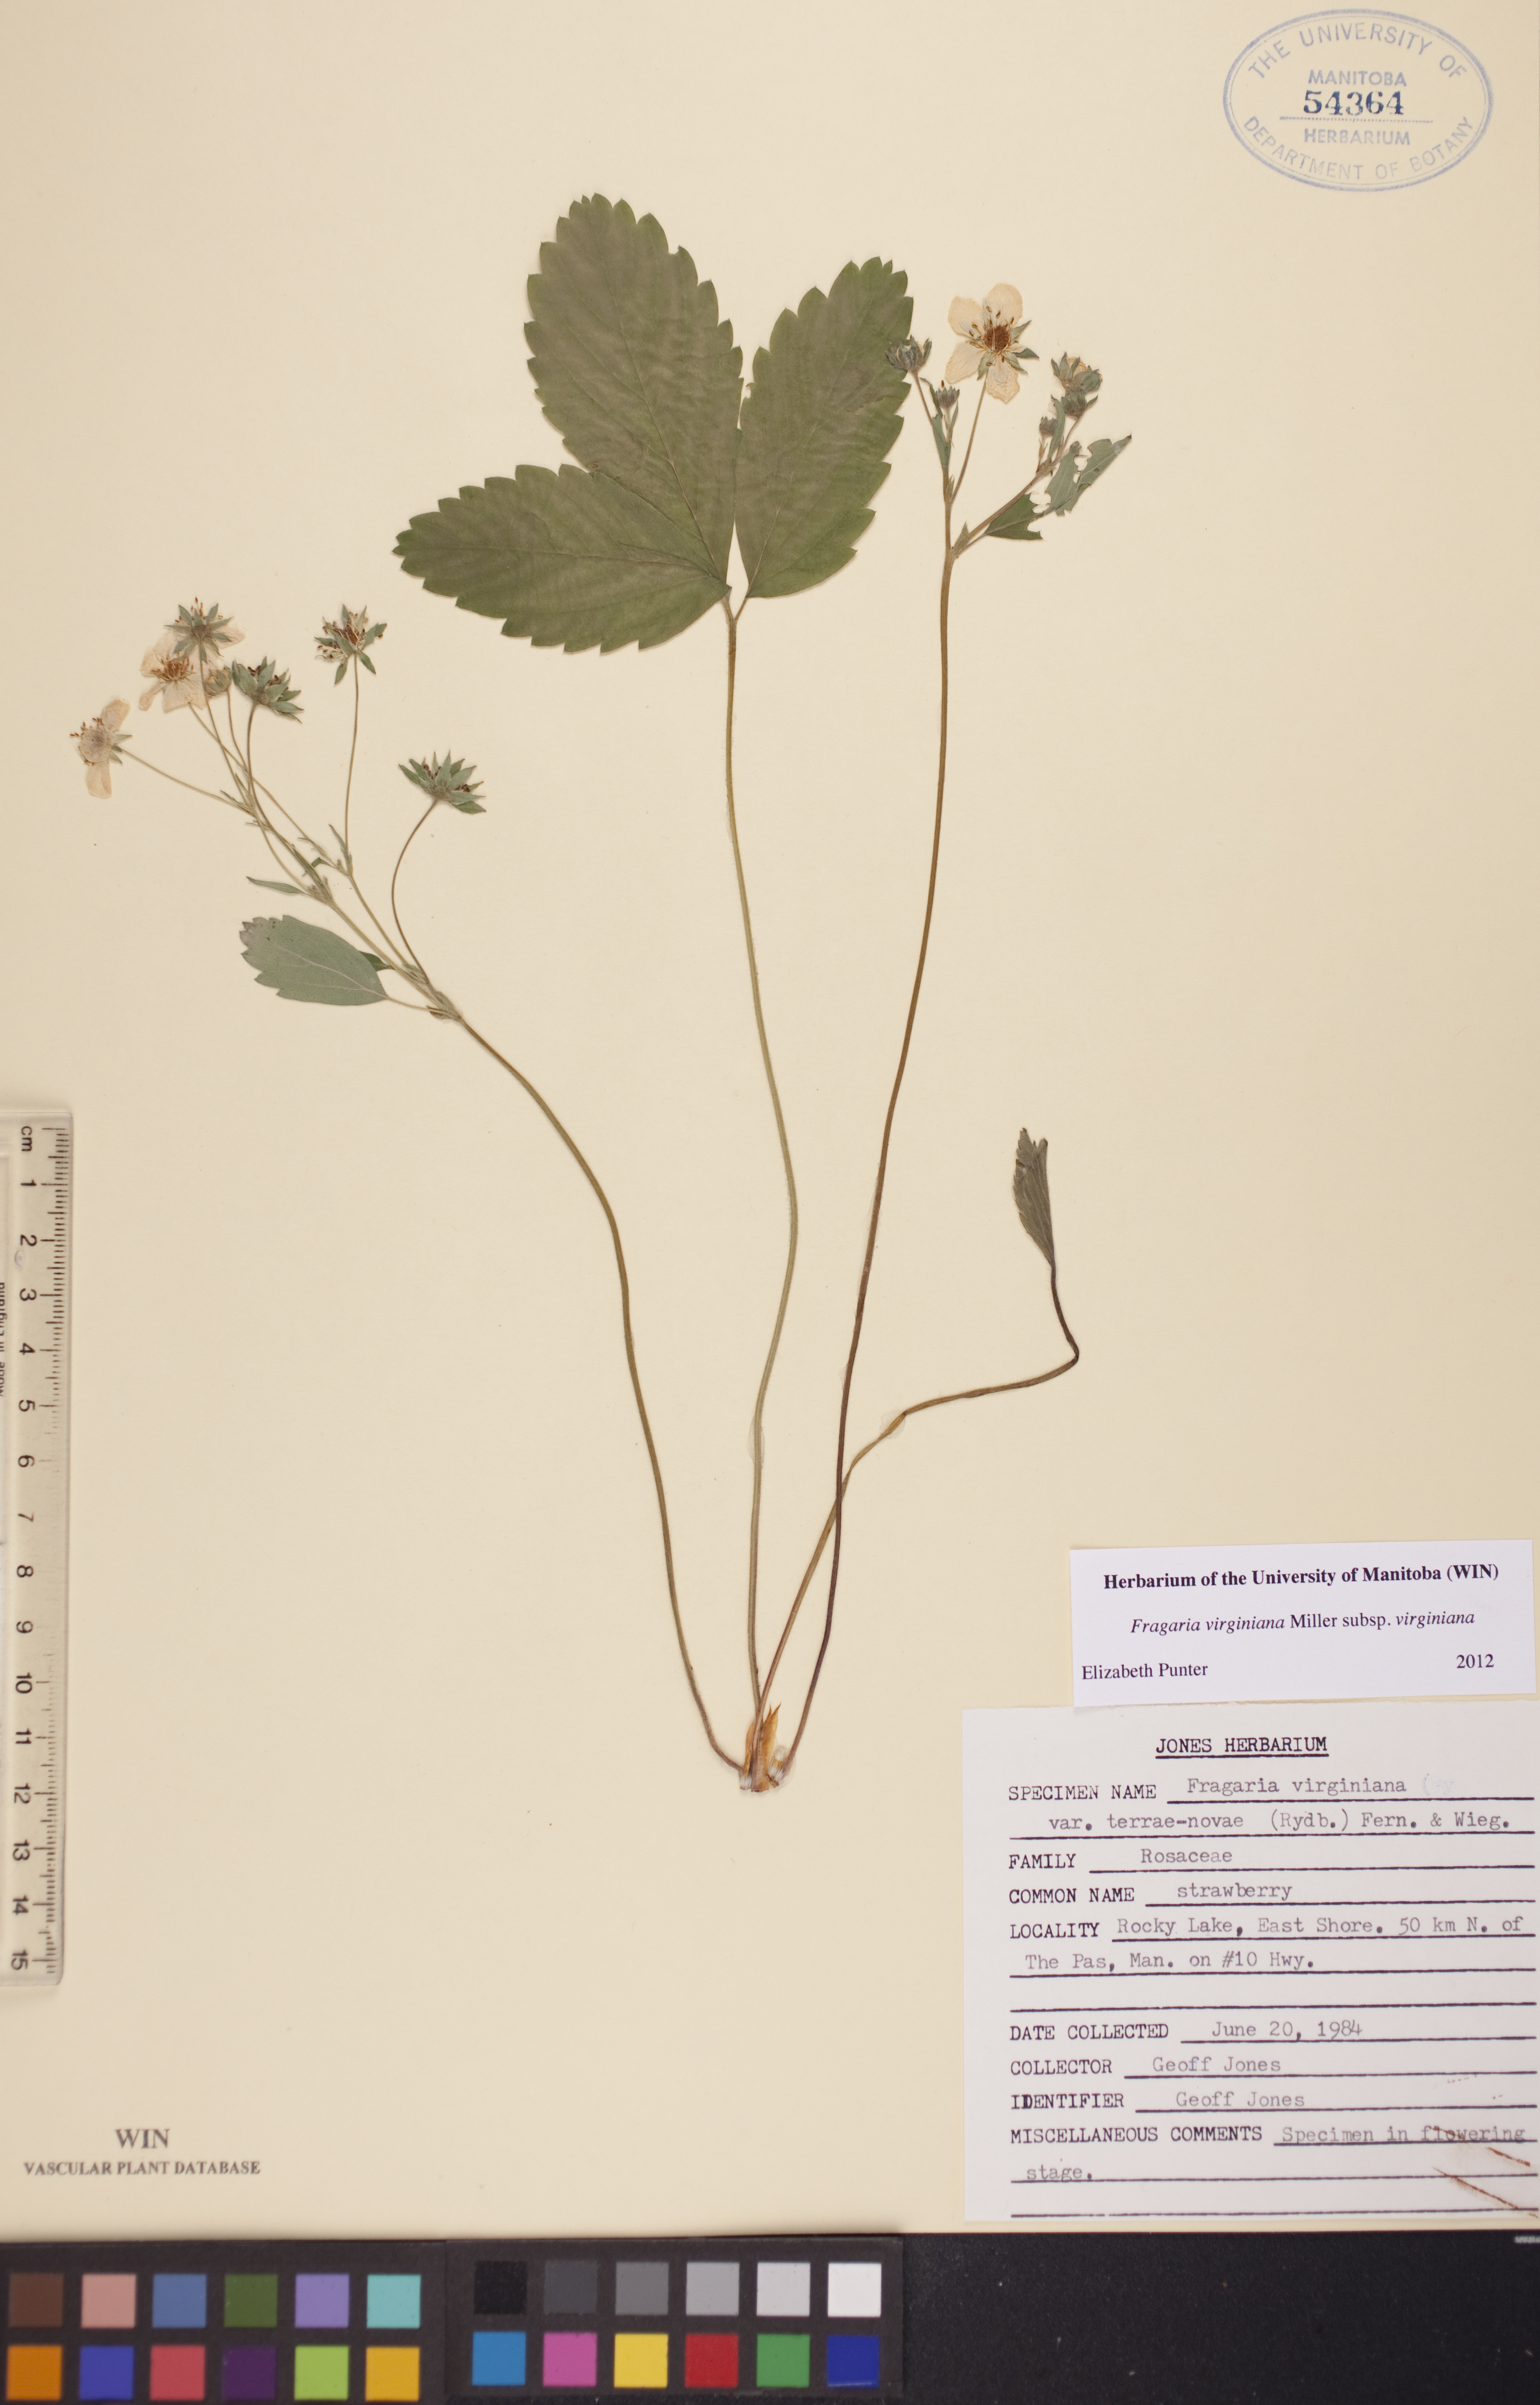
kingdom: Plantae
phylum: Tracheophyta
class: Magnoliopsida
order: Rosales
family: Rosaceae
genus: Fragaria
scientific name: Fragaria virginiana
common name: Thickleaved wild strawberry
